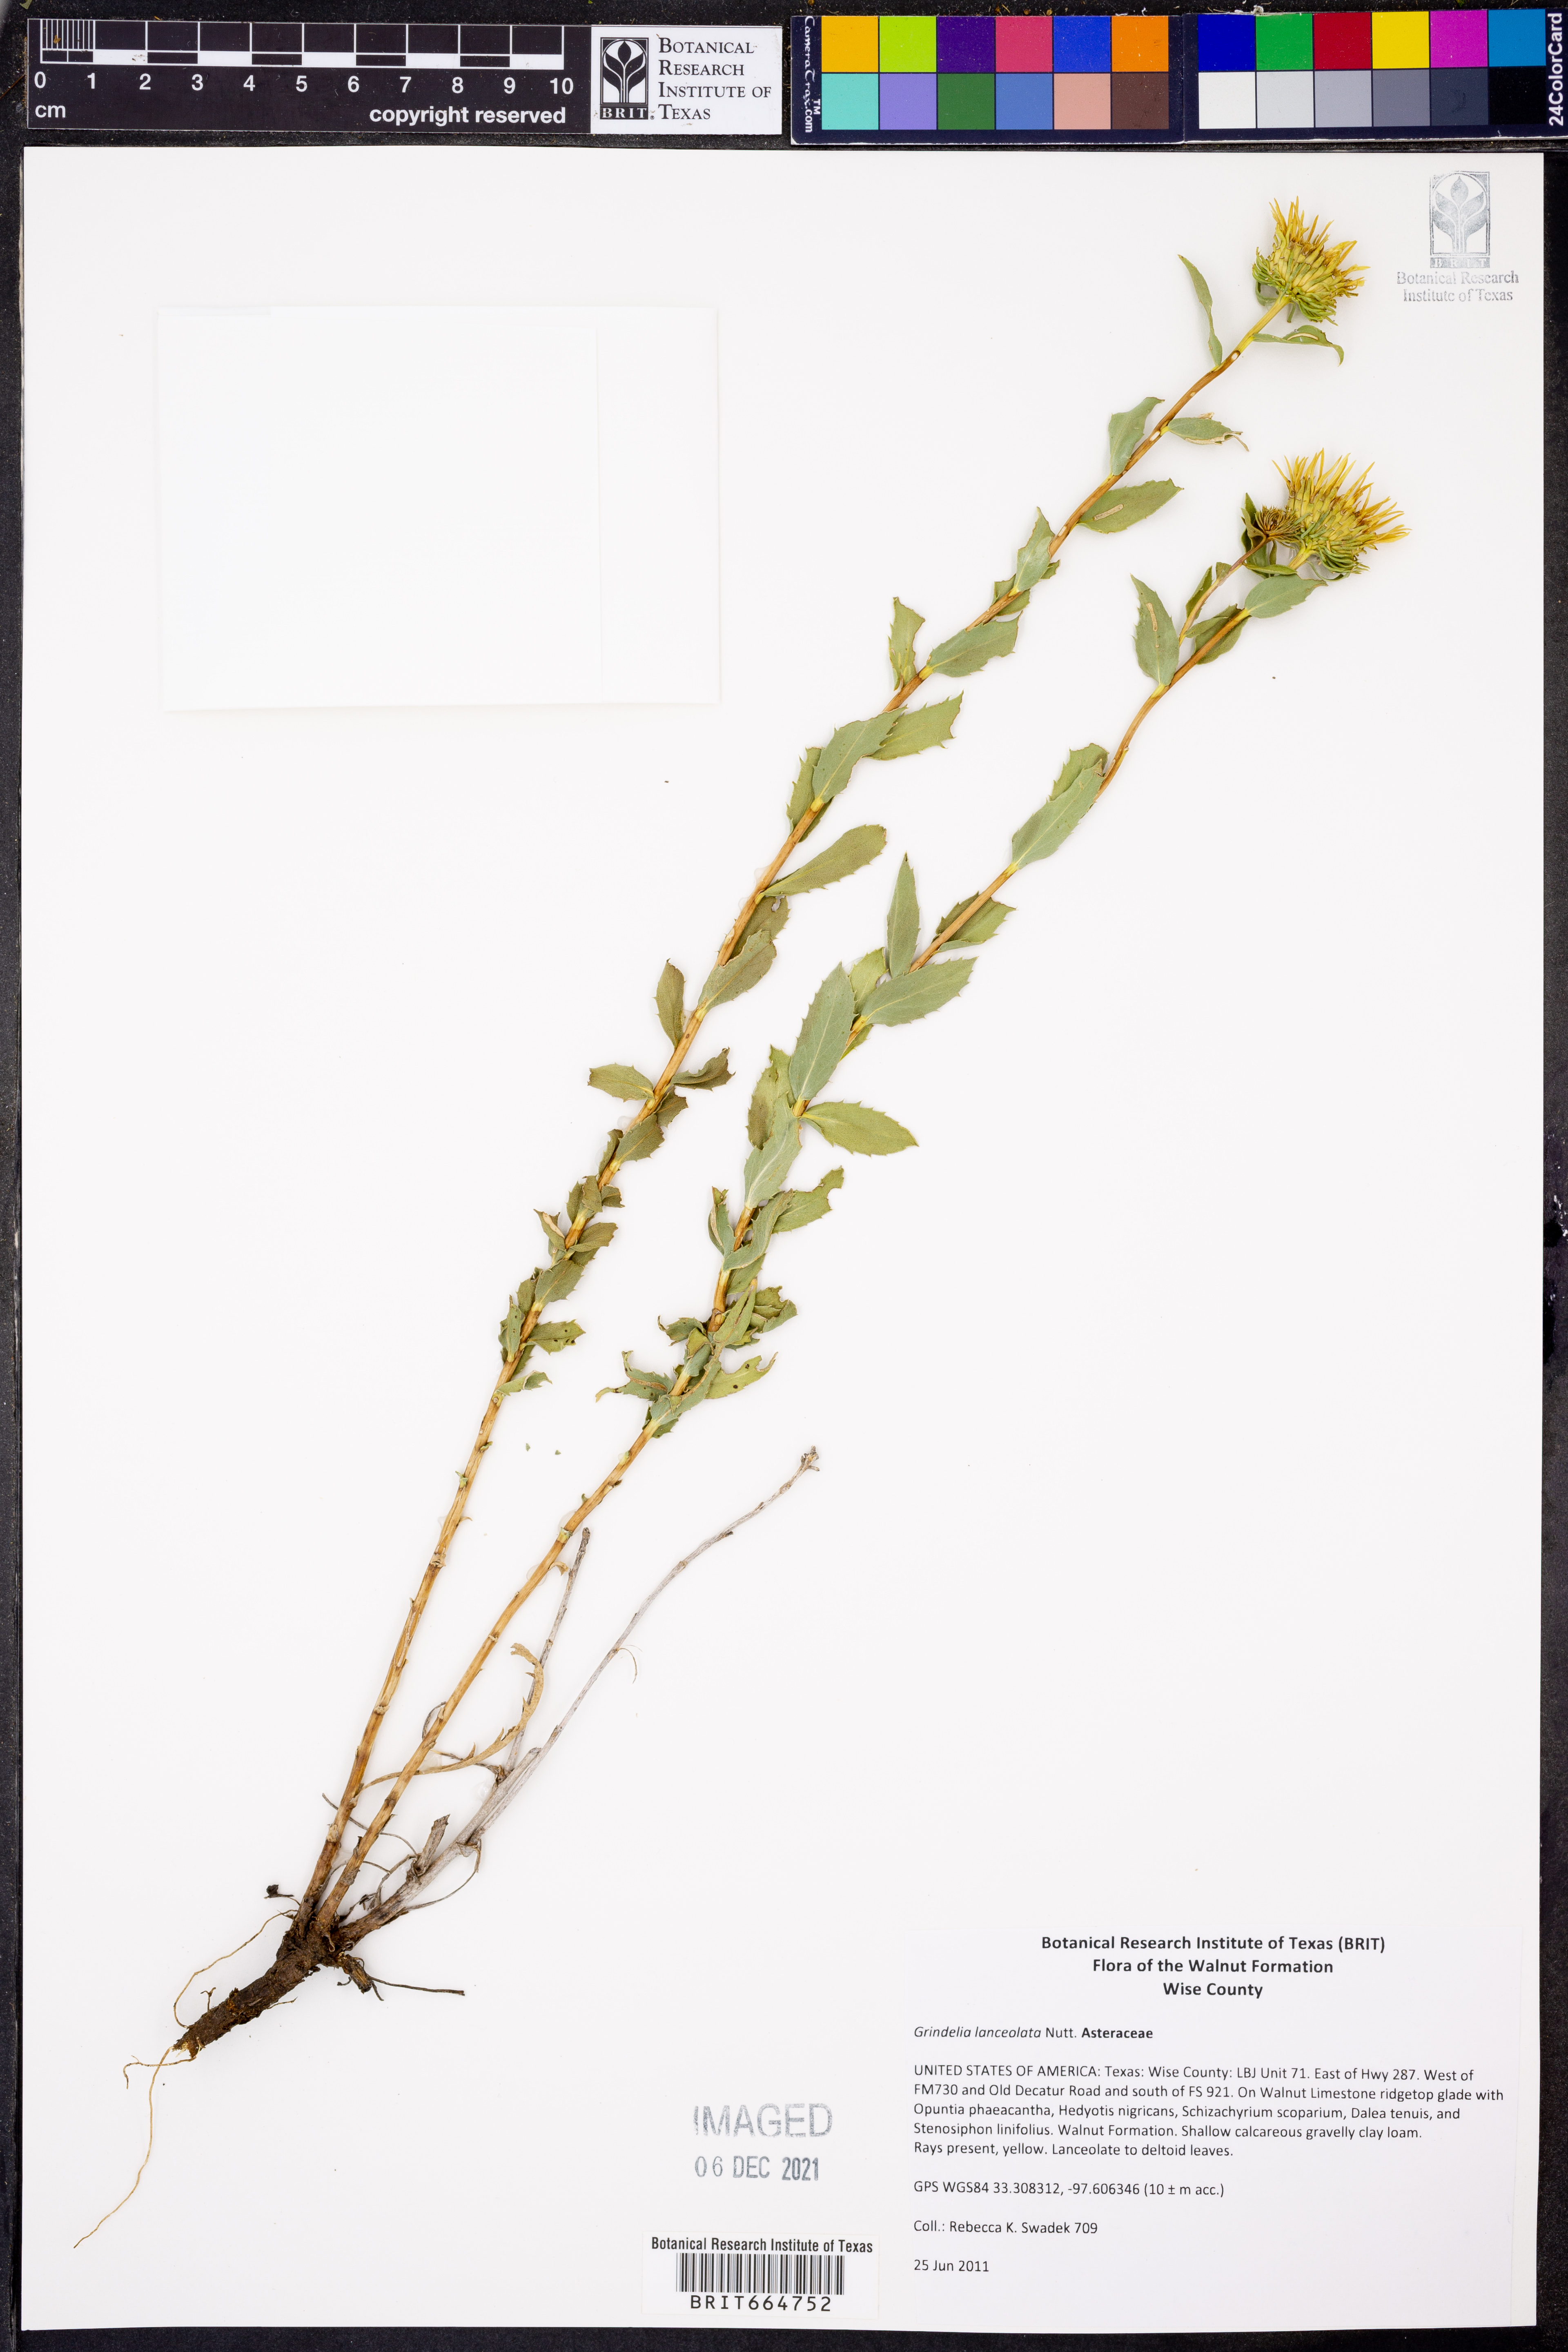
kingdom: Plantae
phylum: Tracheophyta
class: Magnoliopsida
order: Asterales
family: Asteraceae
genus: Grindelia
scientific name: Grindelia lanceolata
